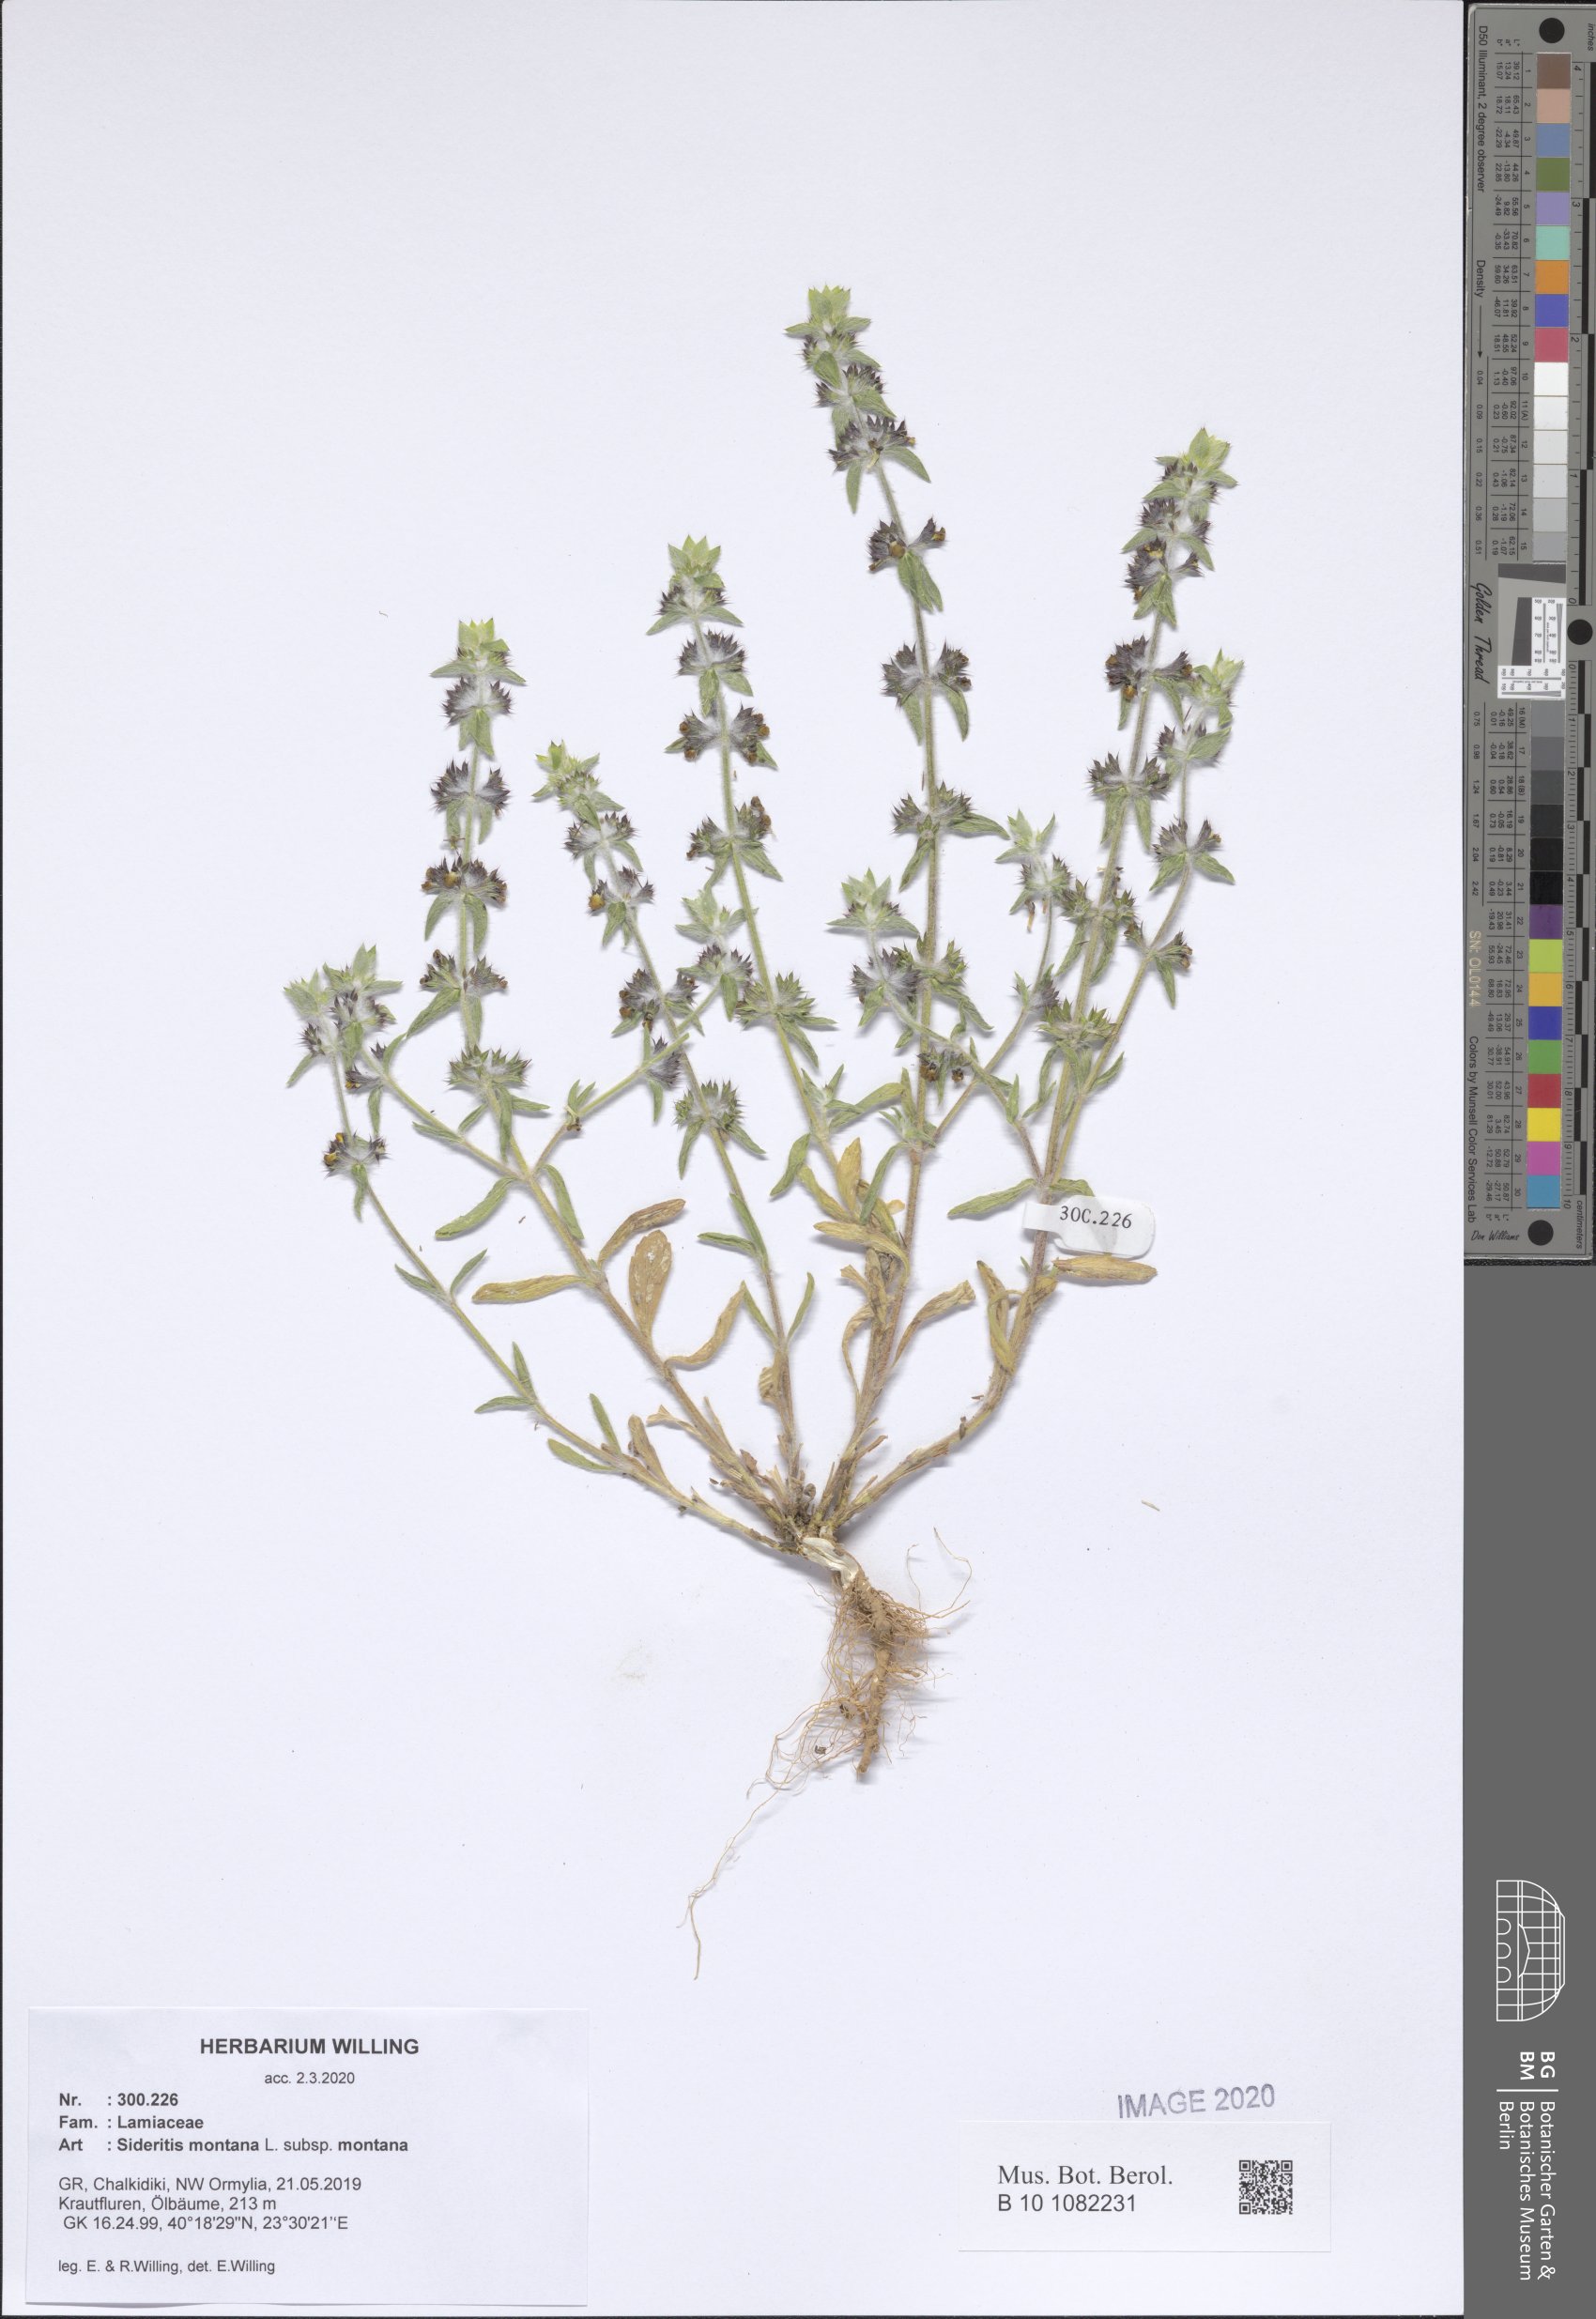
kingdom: Plantae
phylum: Tracheophyta
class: Magnoliopsida
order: Lamiales
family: Lamiaceae
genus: Sideritis
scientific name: Sideritis montana
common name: Mountain ironwort
